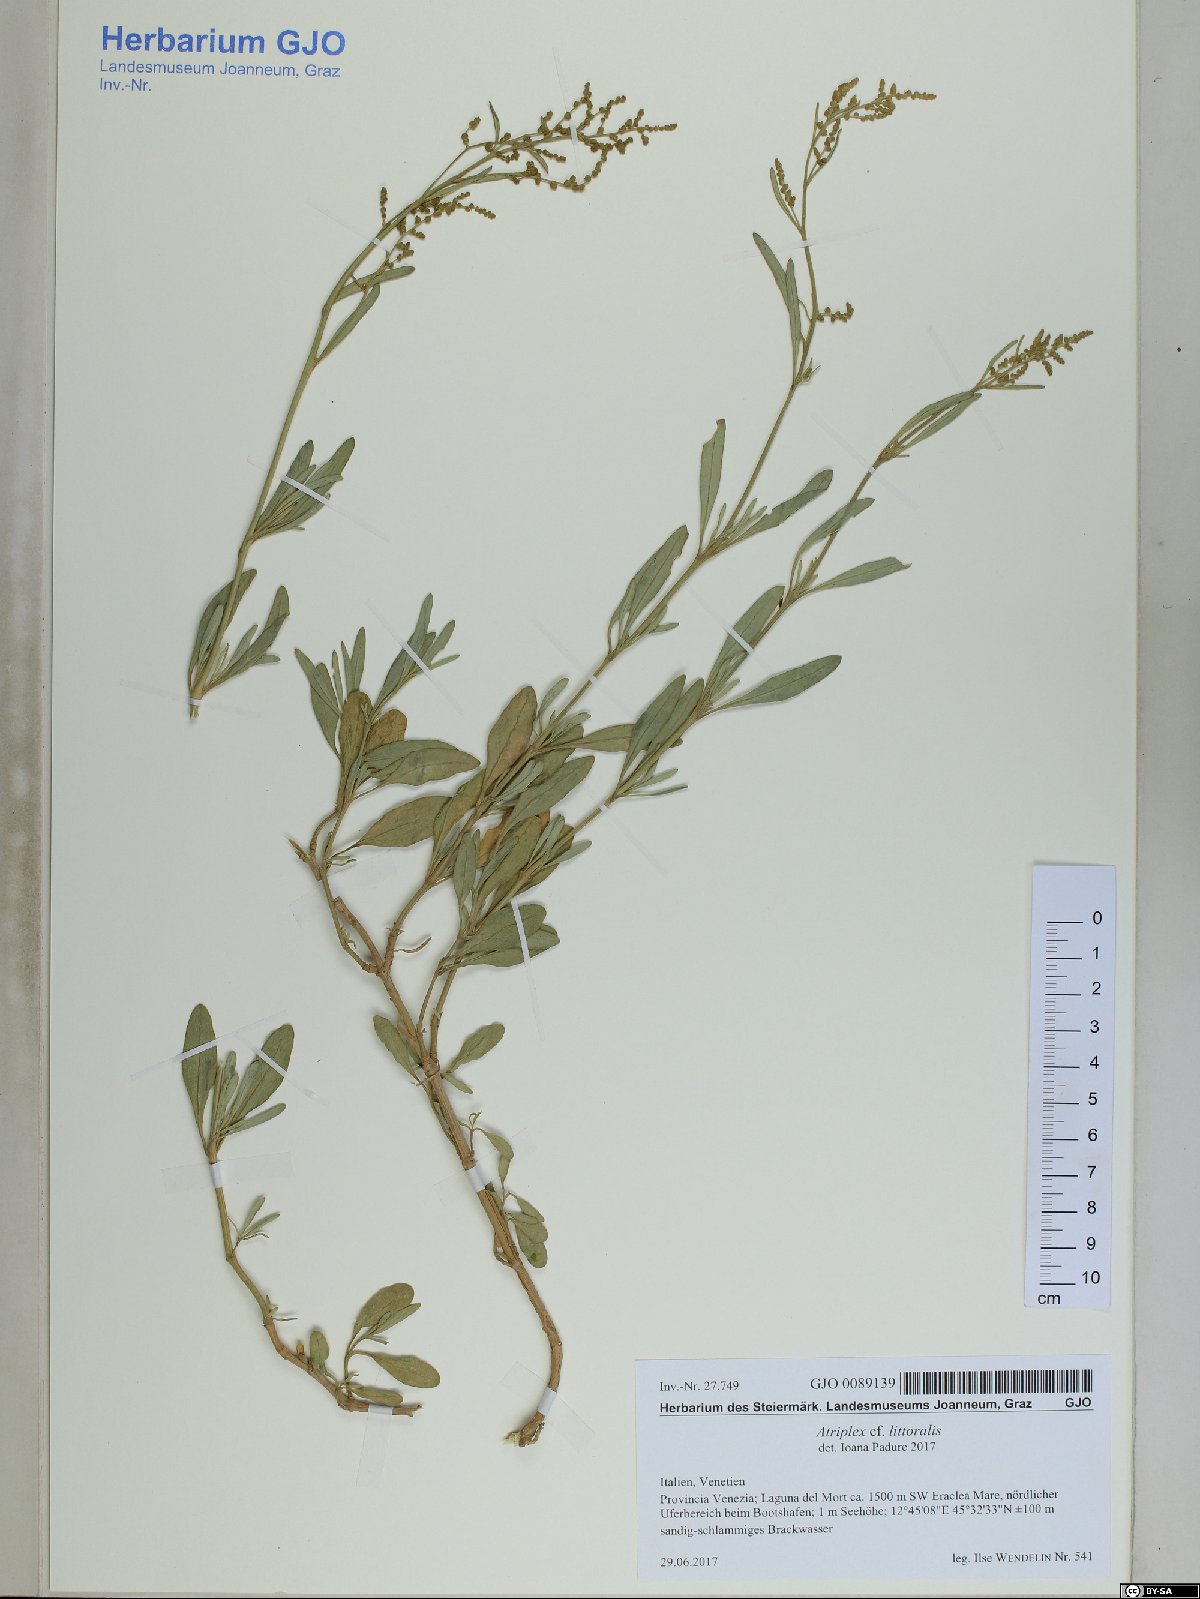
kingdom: Plantae
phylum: Tracheophyta
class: Magnoliopsida
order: Caryophyllales
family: Amaranthaceae
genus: Atriplex
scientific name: Atriplex littoralis
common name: Grass-leaved orache
